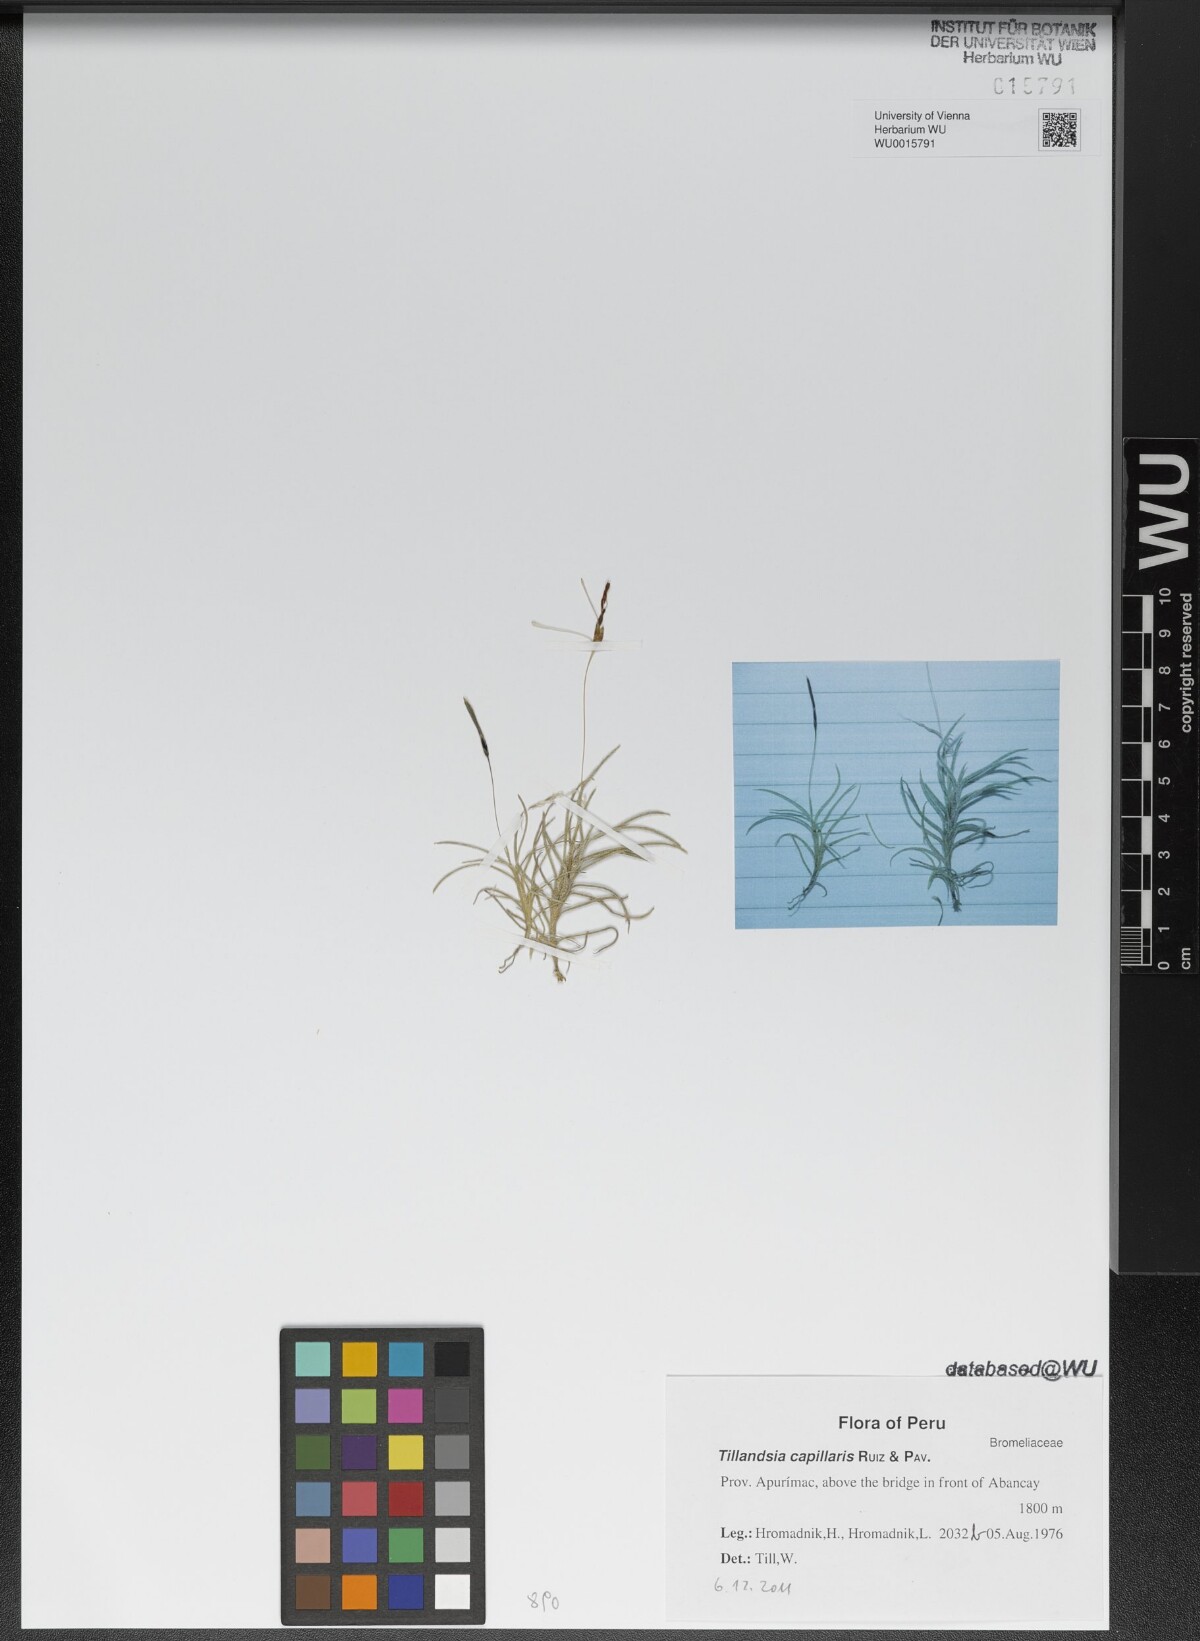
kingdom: Plantae
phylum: Tracheophyta
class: Liliopsida
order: Poales
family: Bromeliaceae
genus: Tillandsia
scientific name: Tillandsia capillaris
